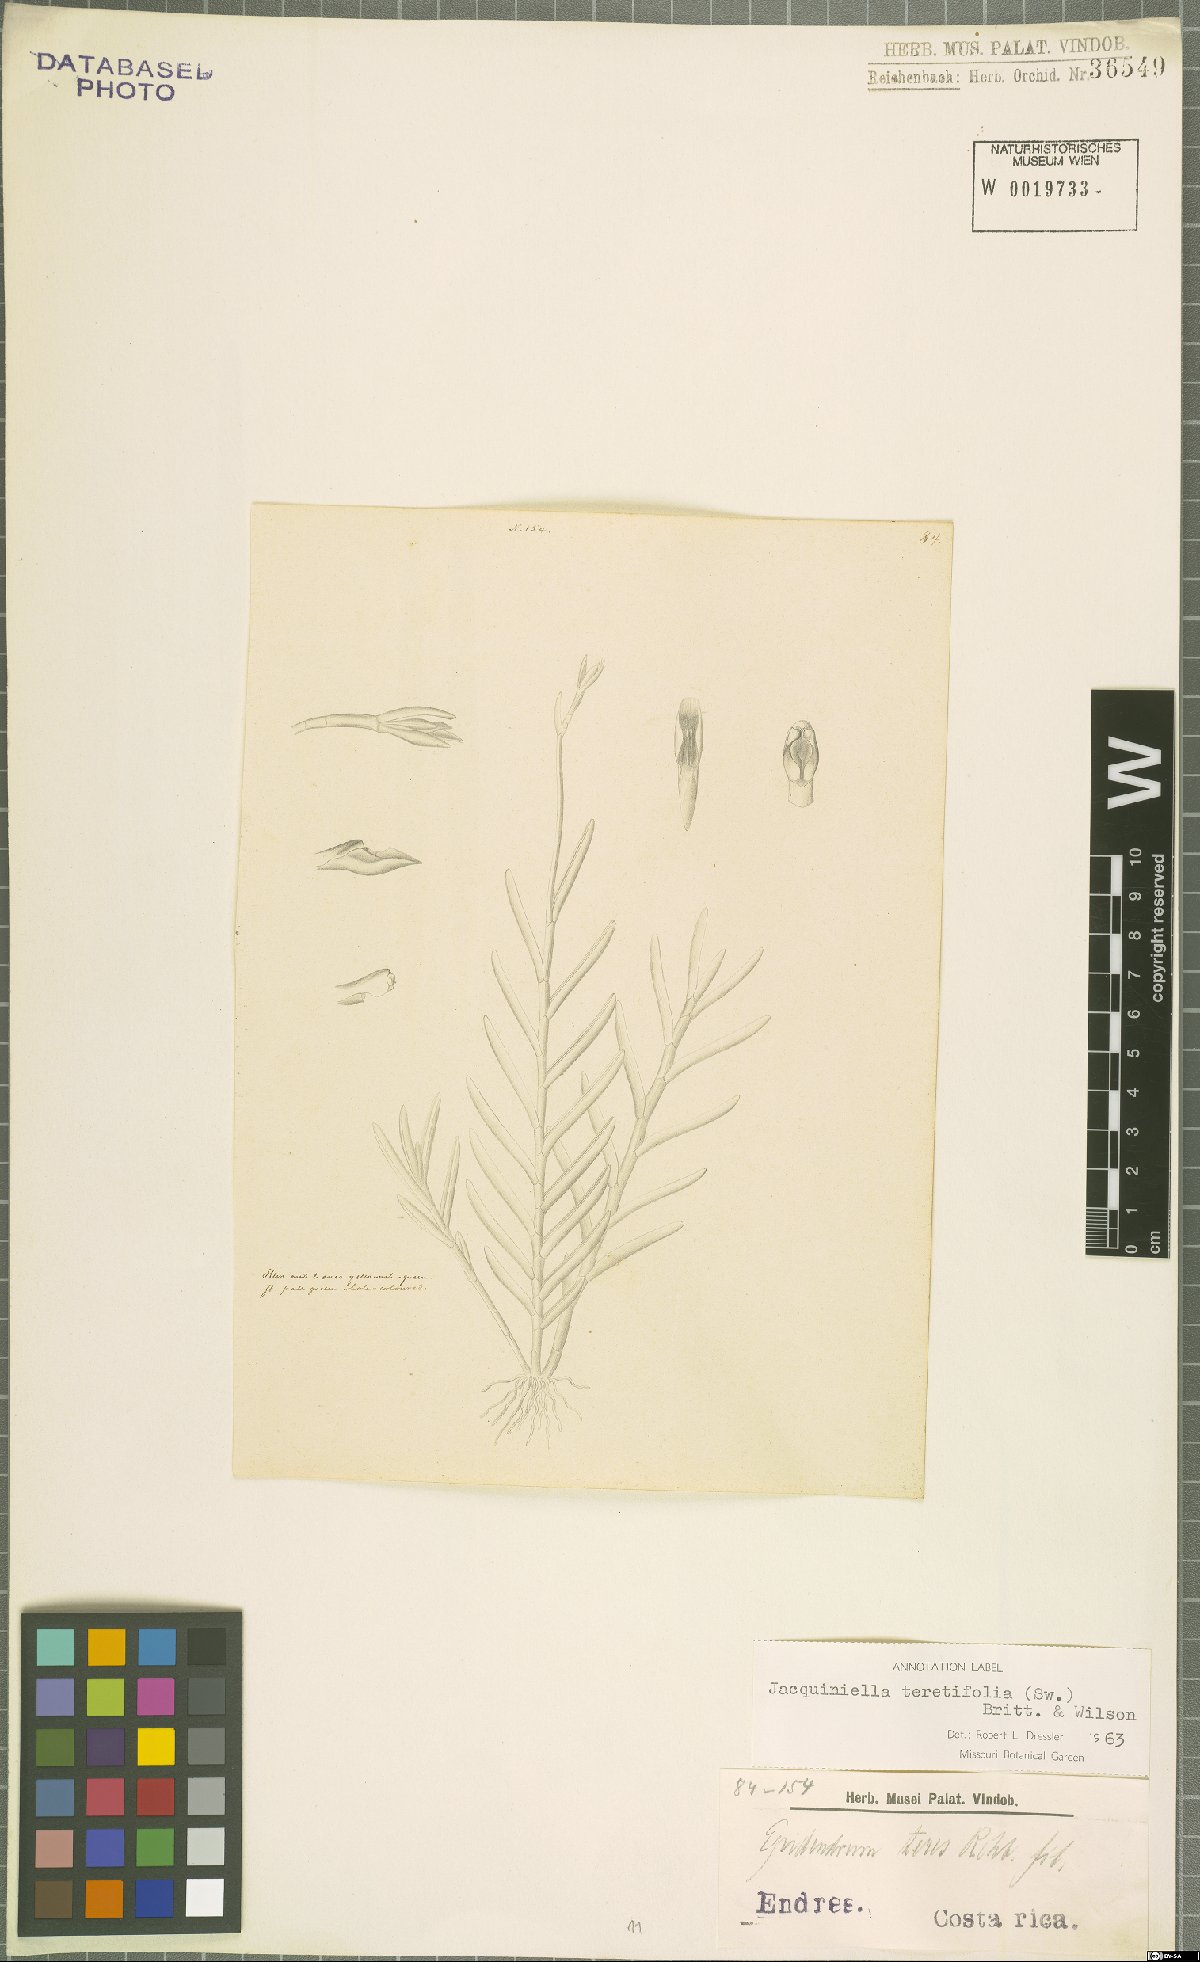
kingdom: Plantae
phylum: Tracheophyta
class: Liliopsida
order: Asparagales
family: Orchidaceae
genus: Jacquiniella
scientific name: Jacquiniella teretifolia
